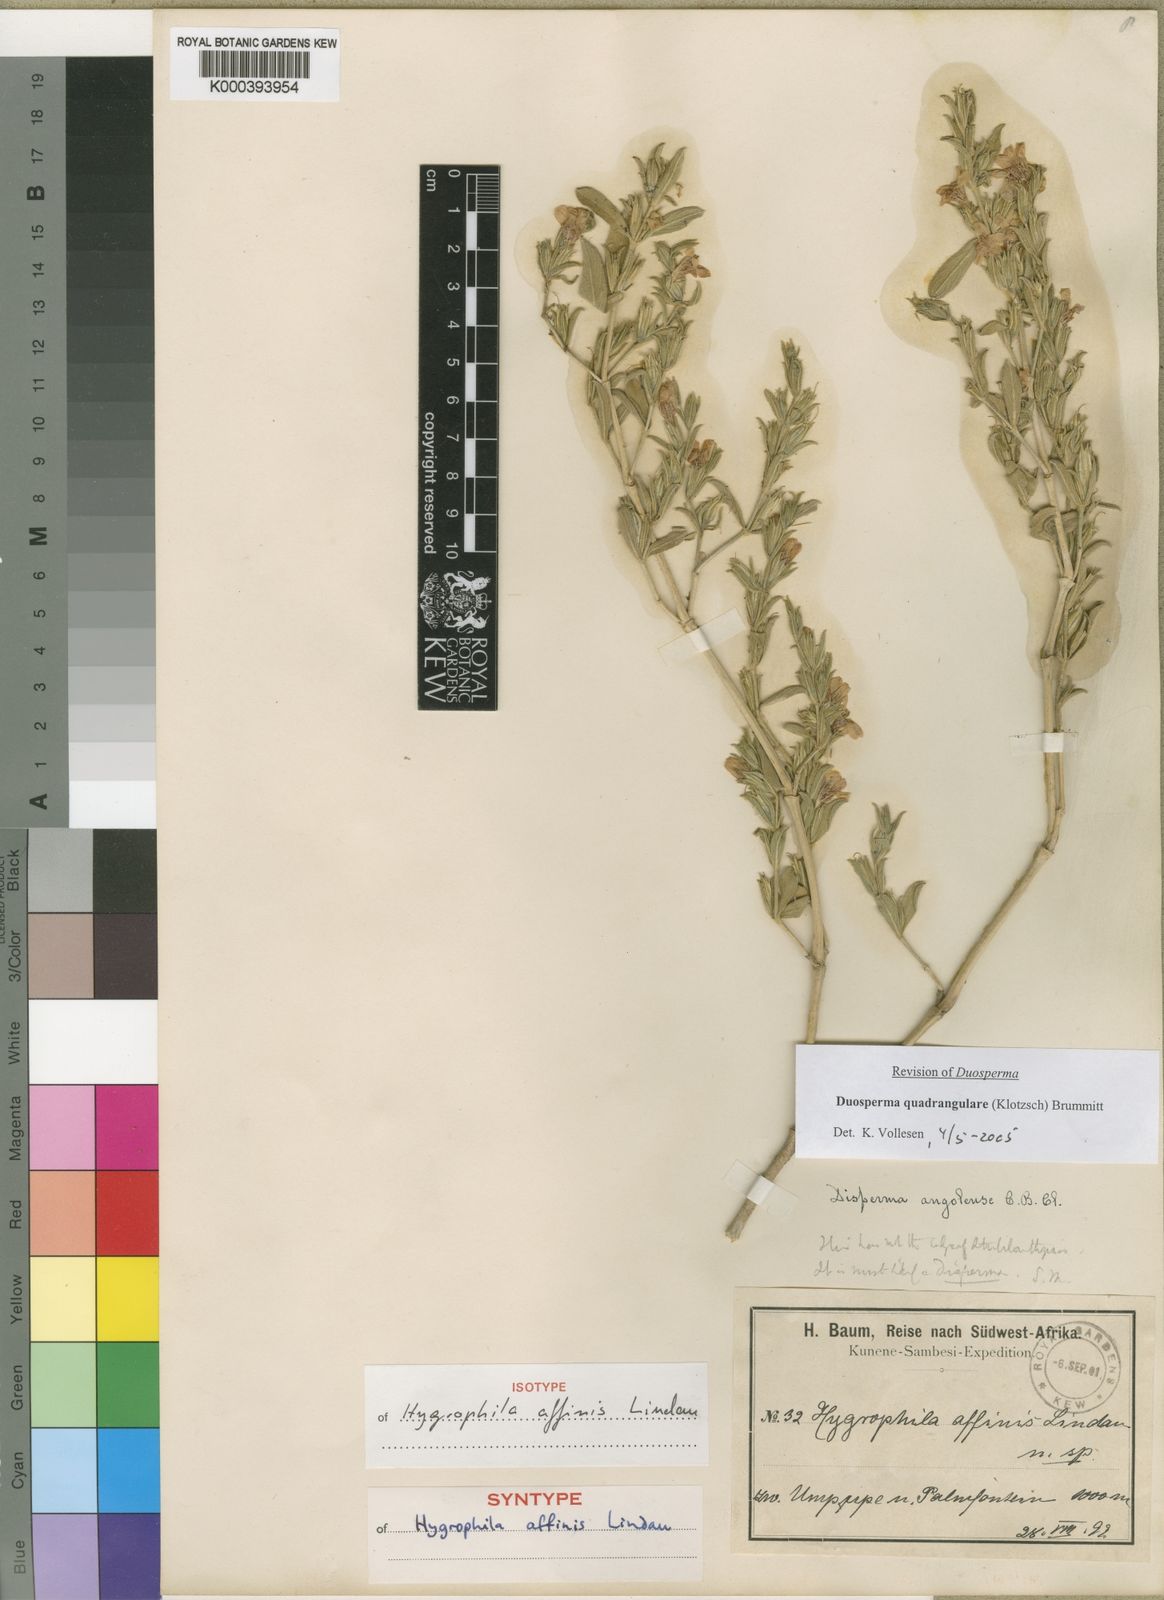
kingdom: Plantae
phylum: Tracheophyta
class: Magnoliopsida
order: Lamiales
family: Acanthaceae
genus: Duosperma
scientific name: Duosperma quadrangulare
